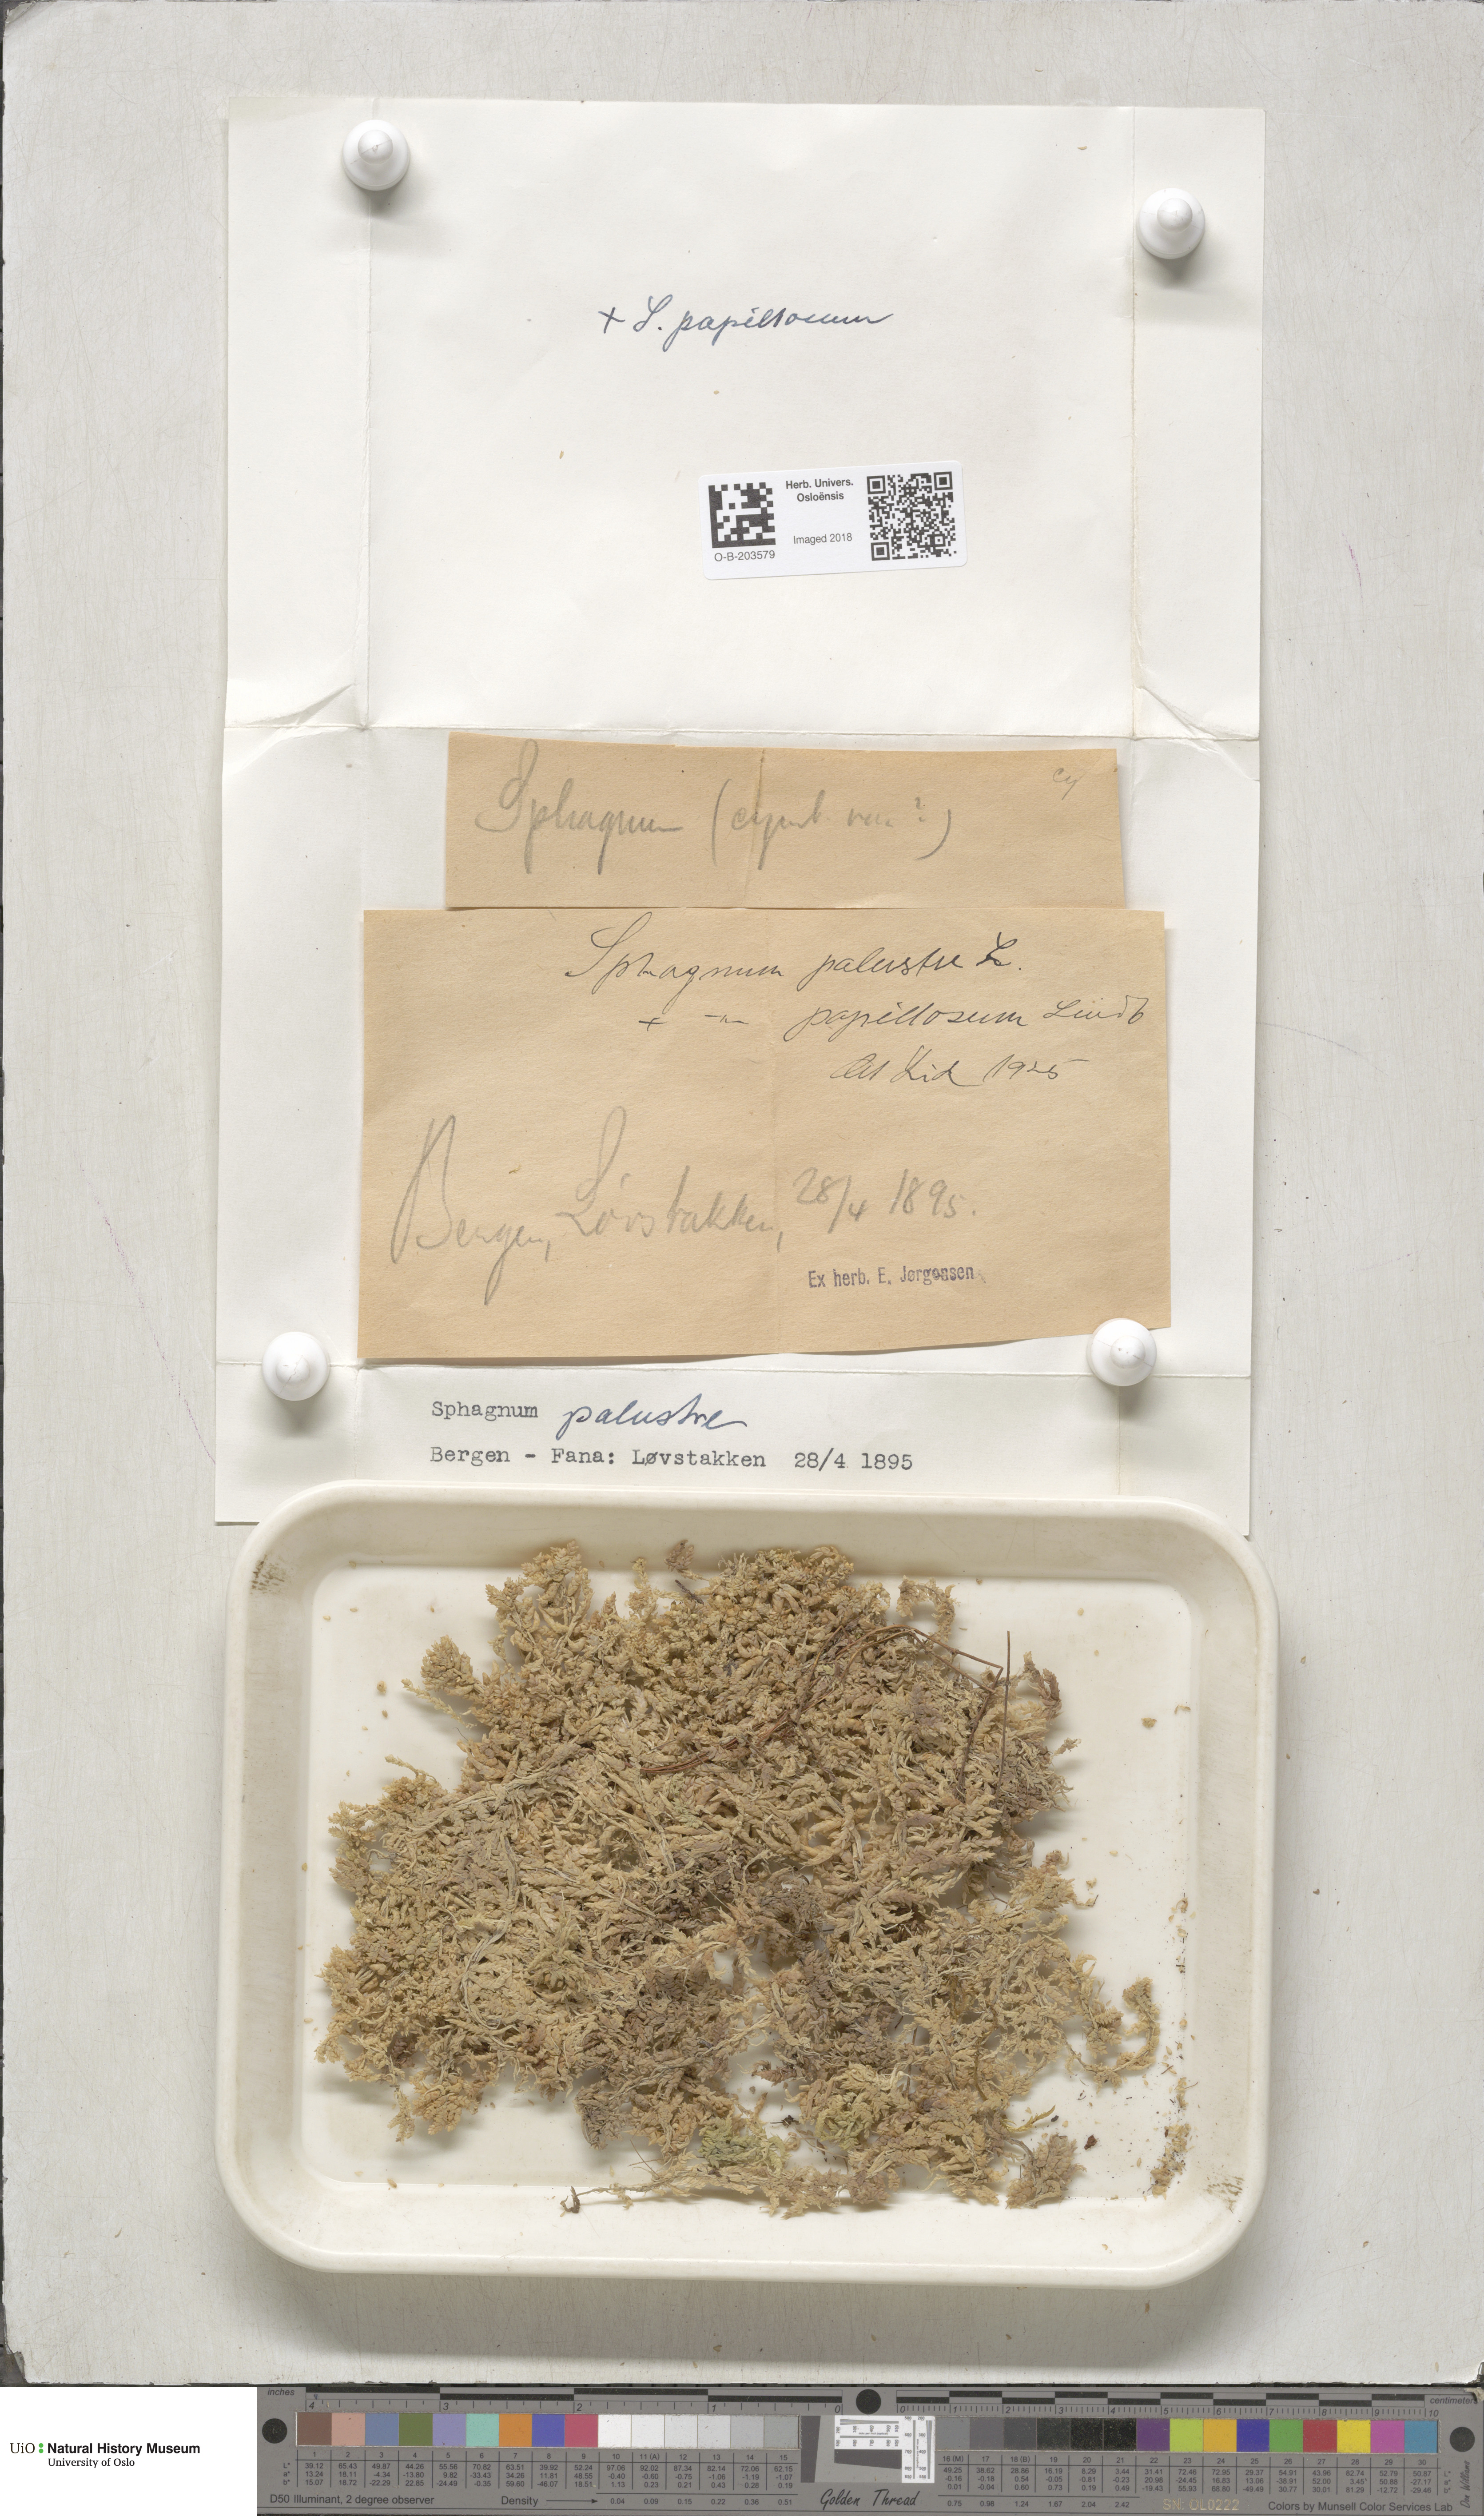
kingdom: Plantae
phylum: Bryophyta
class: Sphagnopsida
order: Sphagnales
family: Sphagnaceae
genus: Sphagnum
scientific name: Sphagnum palustre
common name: Blunt-leaved bog-moss
